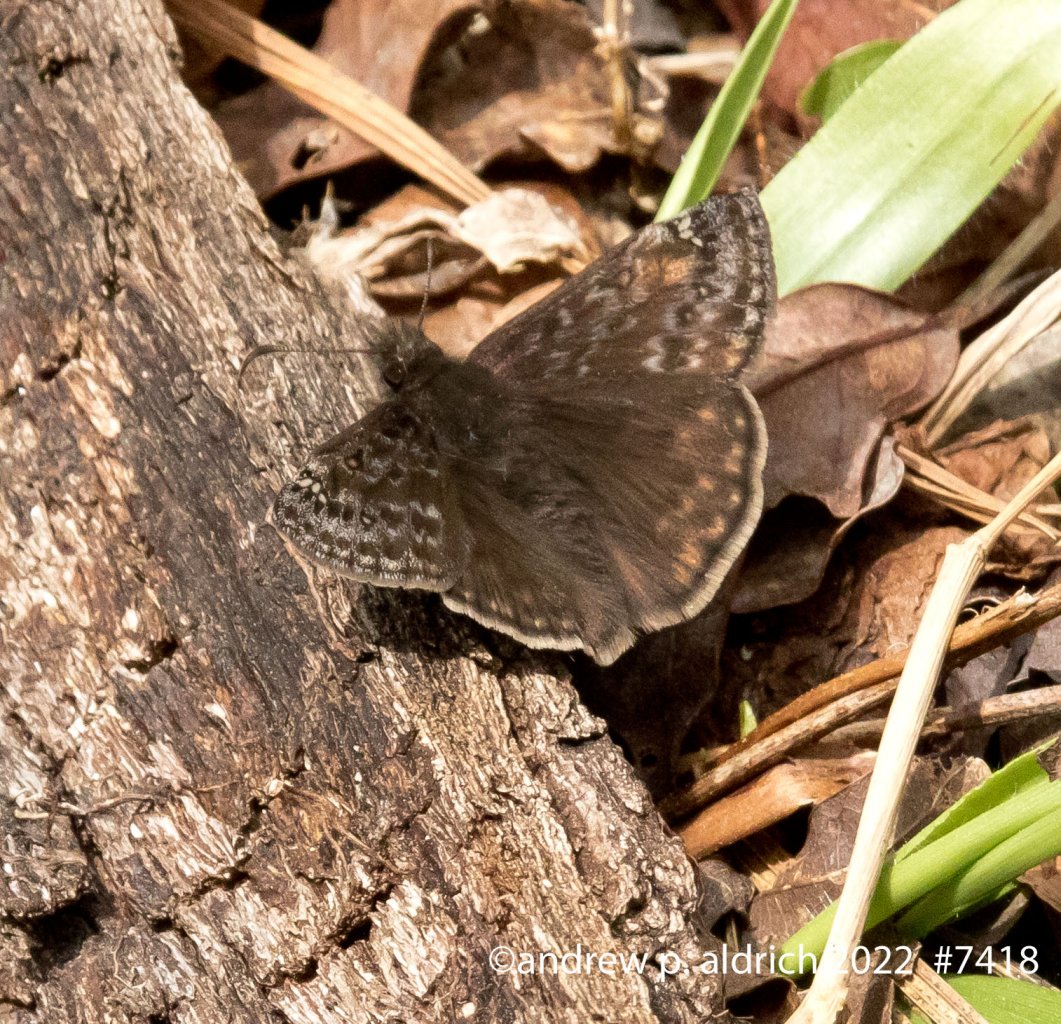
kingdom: Animalia
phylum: Arthropoda
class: Insecta
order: Lepidoptera
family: Hesperiidae
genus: Gesta
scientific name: Gesta
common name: Juvenal's Duskywing
